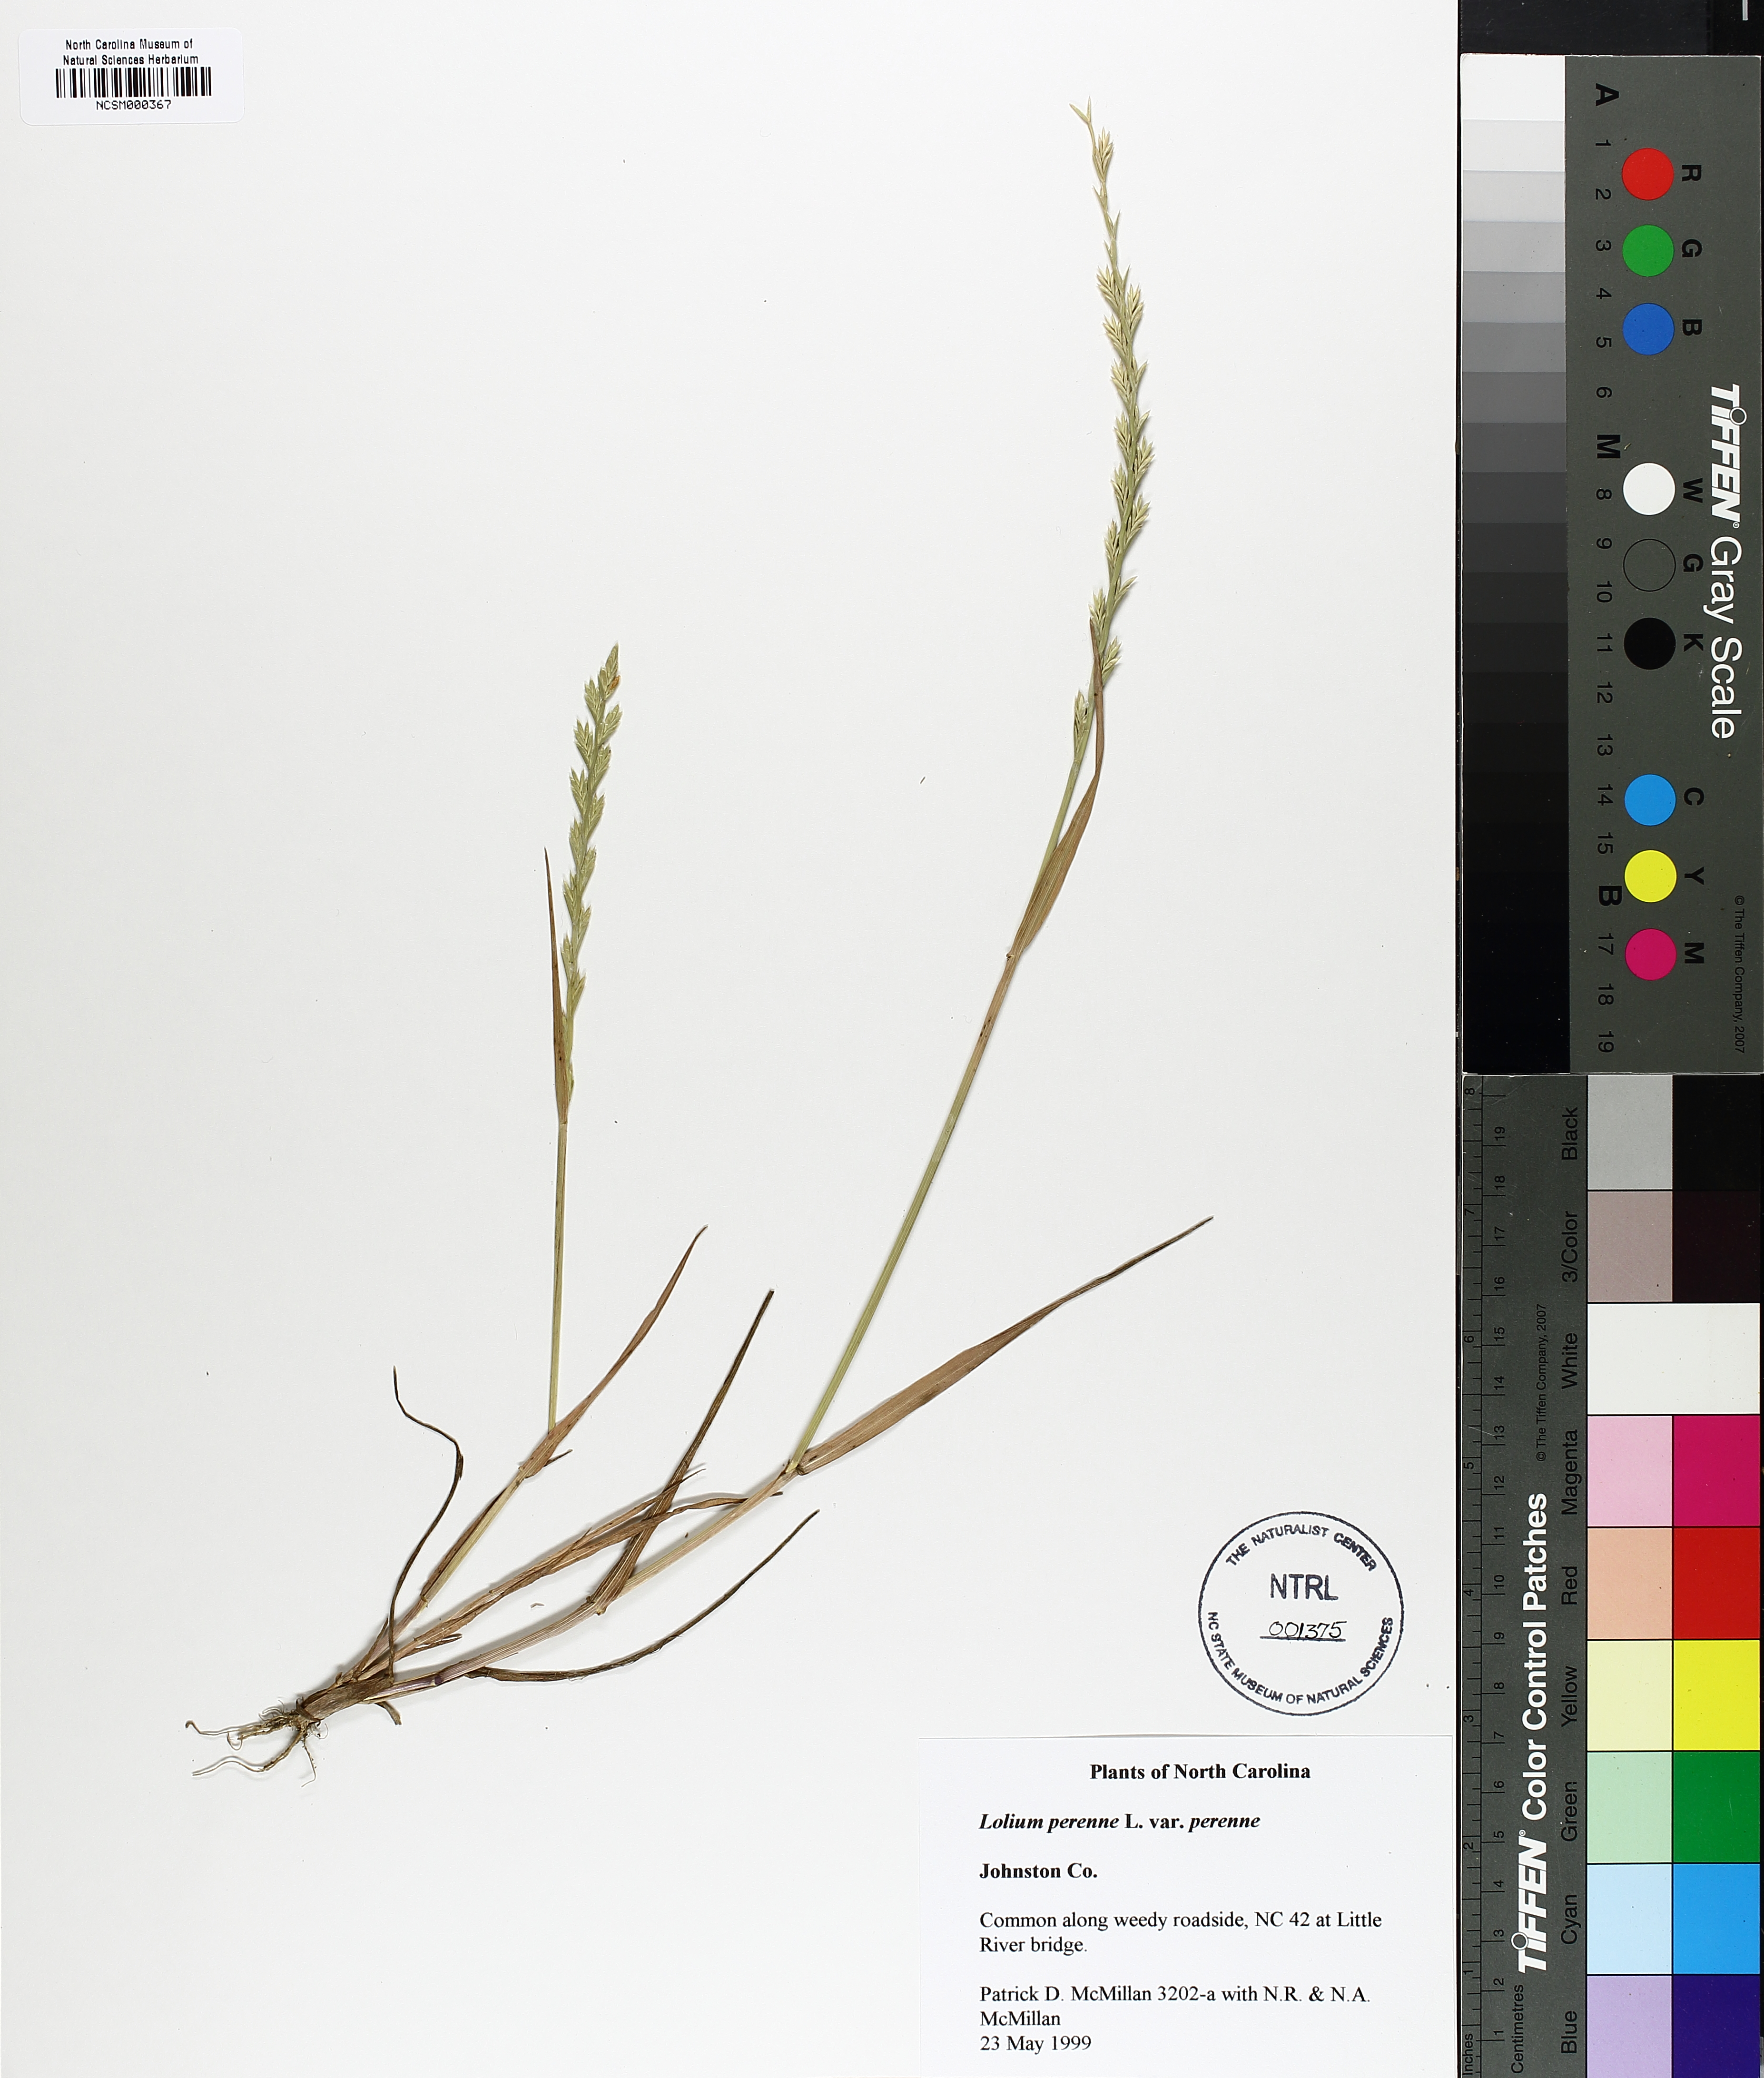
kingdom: Plantae
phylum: Tracheophyta
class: Liliopsida
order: Poales
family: Poaceae
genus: Lolium
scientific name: Lolium perenne
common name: Perennial ryegrass
